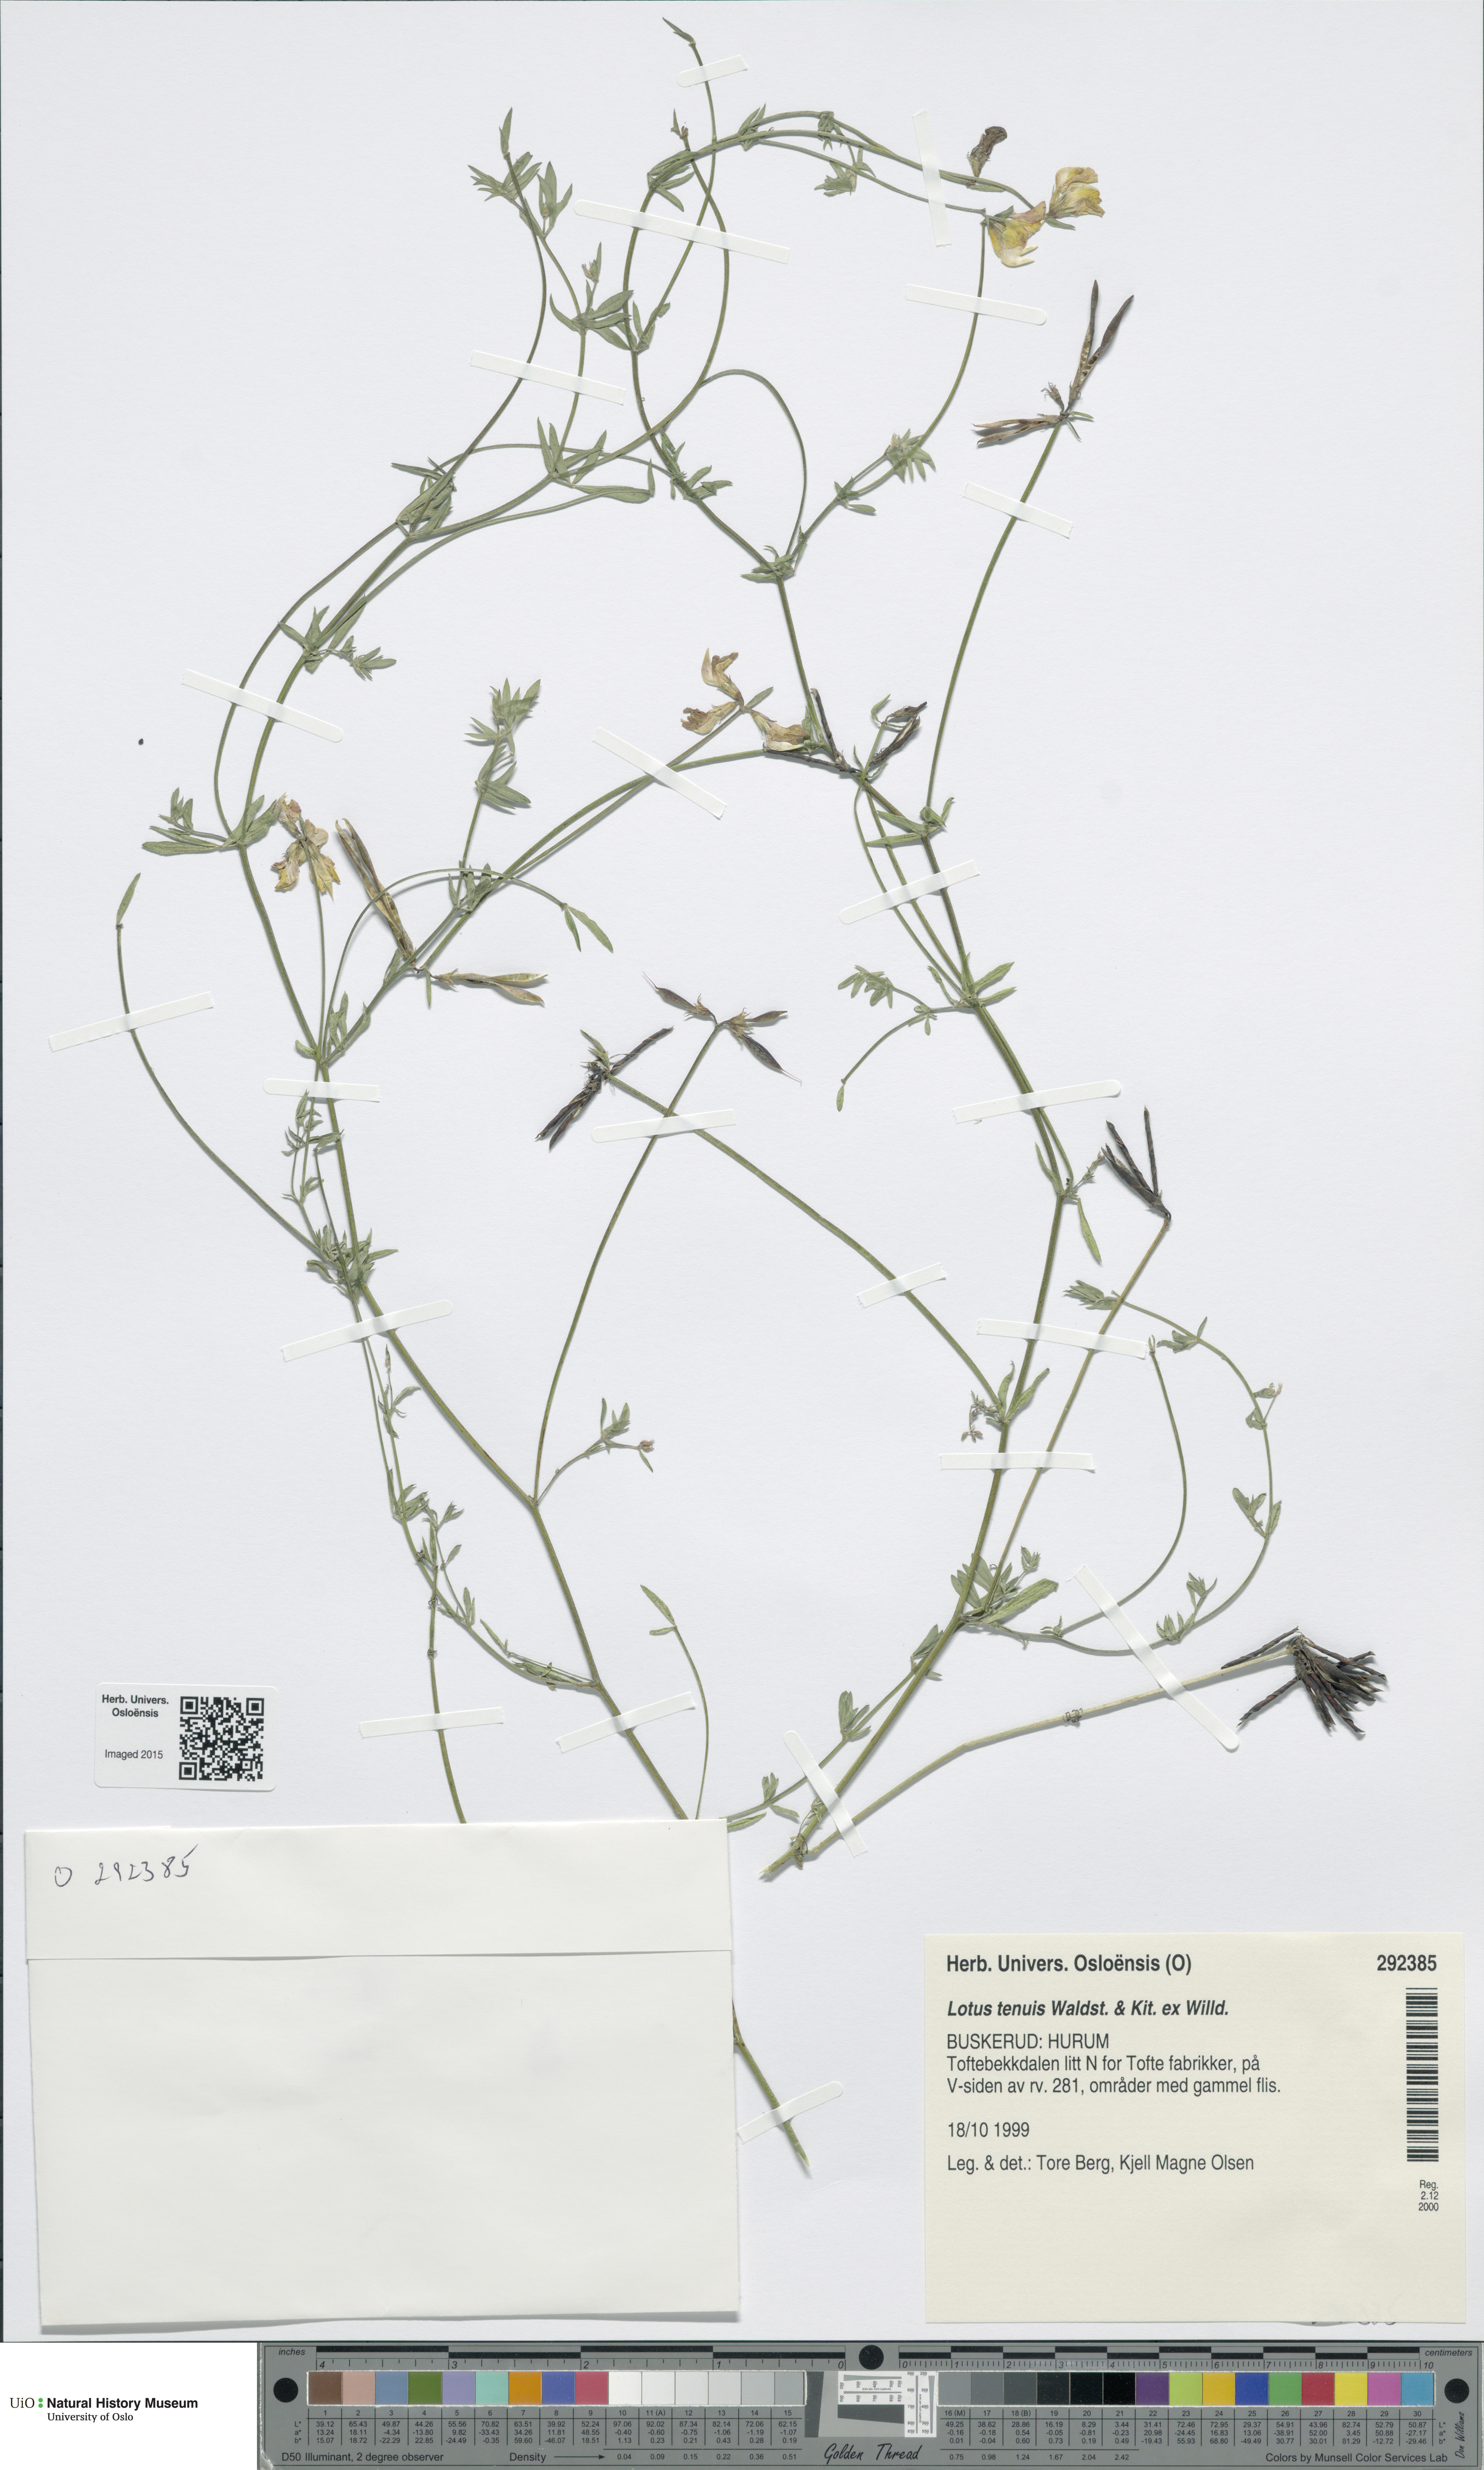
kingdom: Plantae
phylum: Tracheophyta
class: Magnoliopsida
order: Fabales
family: Fabaceae
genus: Lotus
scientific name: Lotus tenuis
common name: Narrow-leaved bird's-foot-trefoil
